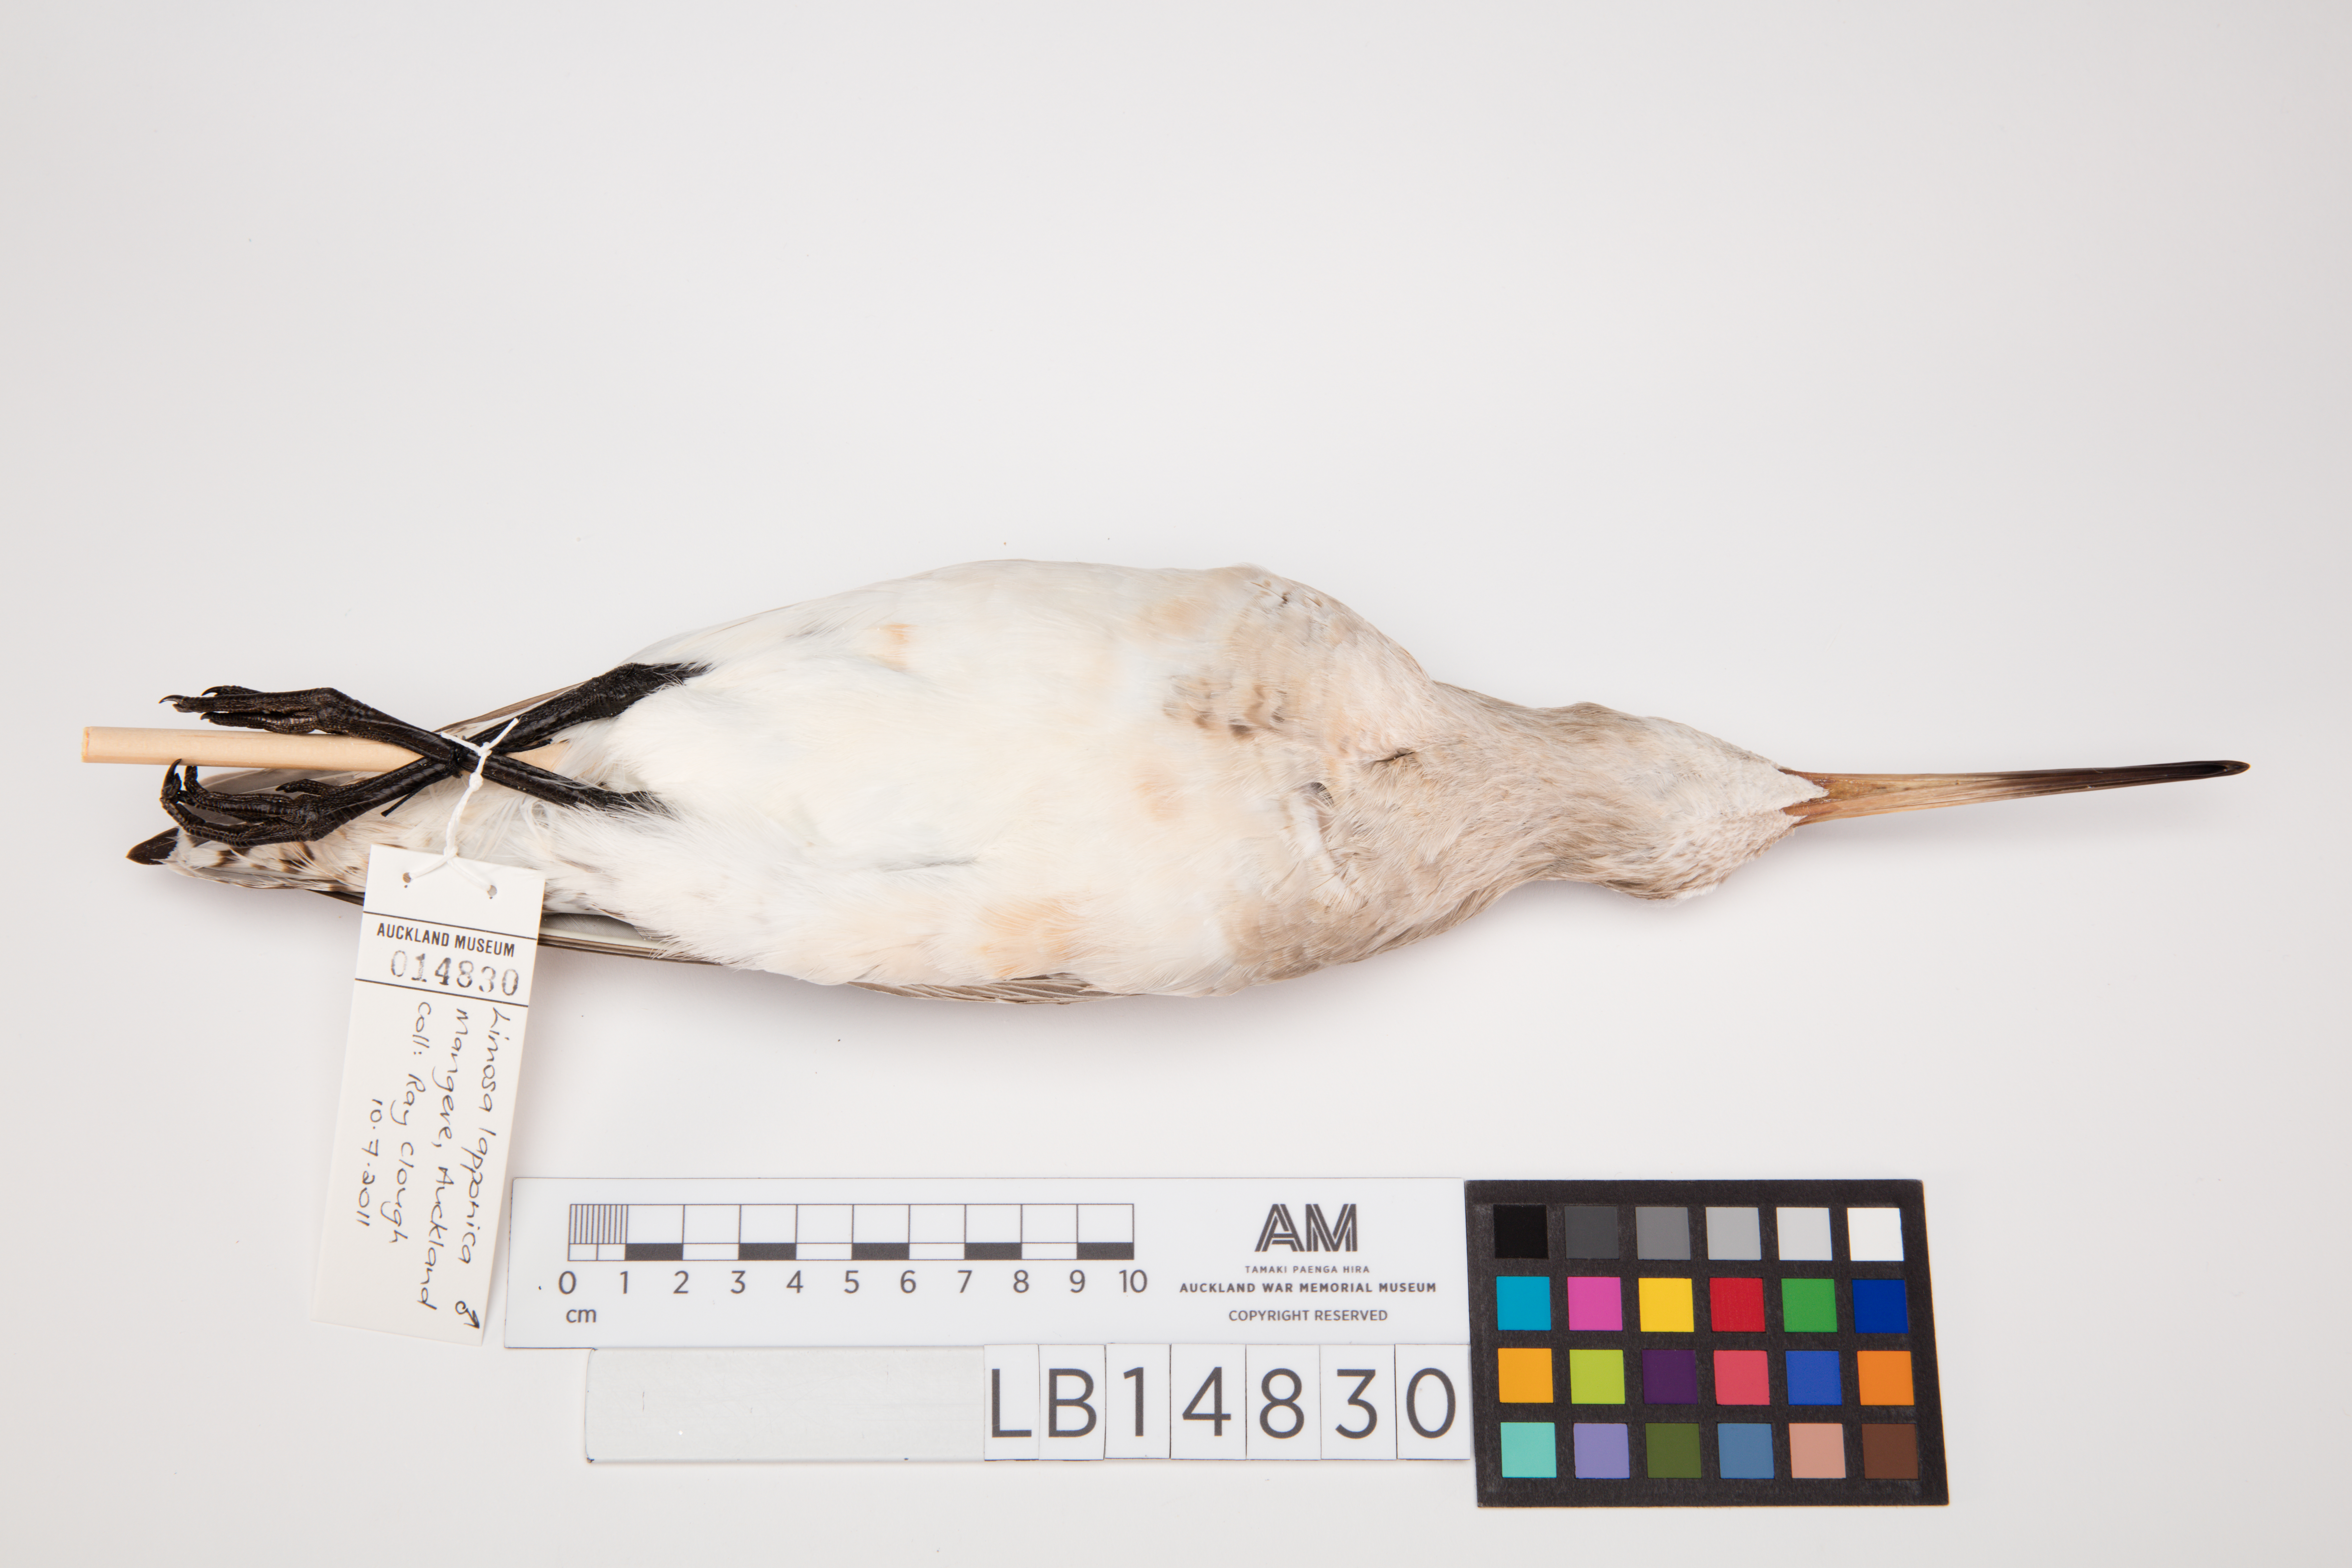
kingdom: Animalia
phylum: Chordata
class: Aves
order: Charadriiformes
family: Scolopacidae
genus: Limosa
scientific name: Limosa lapponica
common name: Bar-tailed godwit
